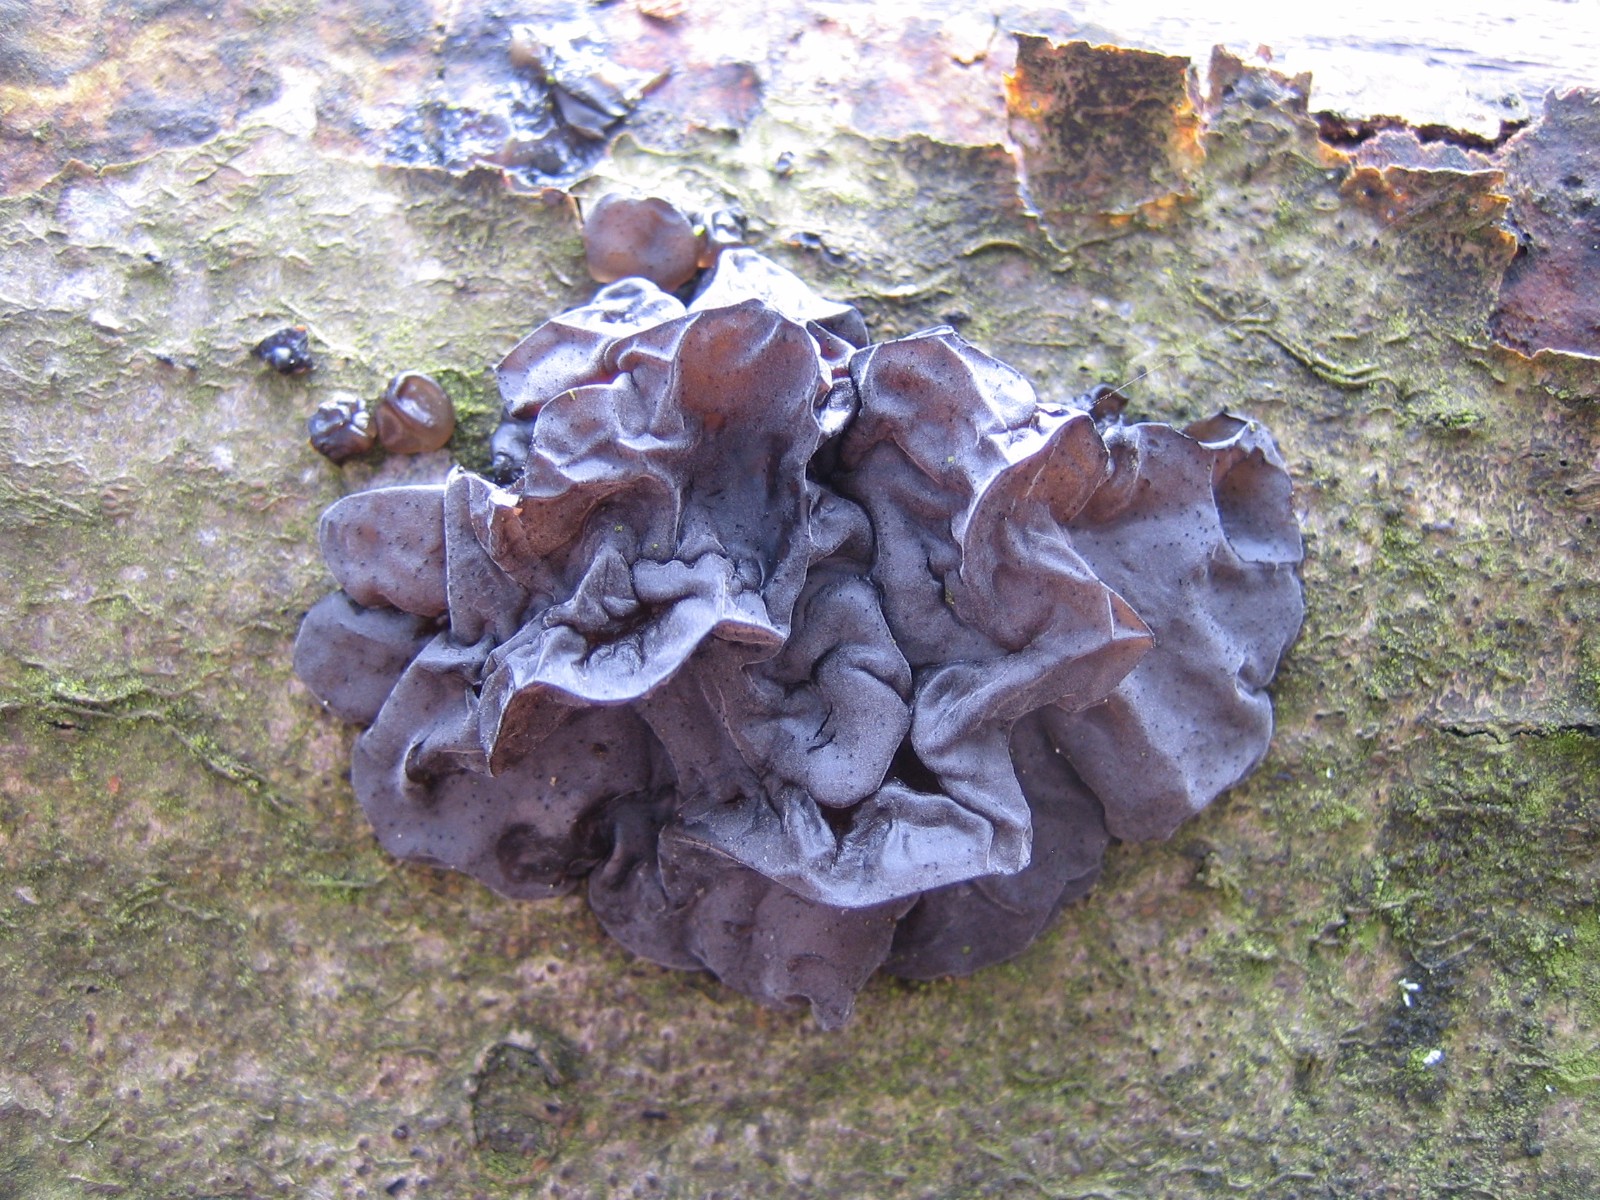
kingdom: Fungi
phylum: Basidiomycota
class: Agaricomycetes
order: Auriculariales
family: Auriculariaceae
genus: Exidia
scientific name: Exidia nigricans
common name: almindelig bævretop
